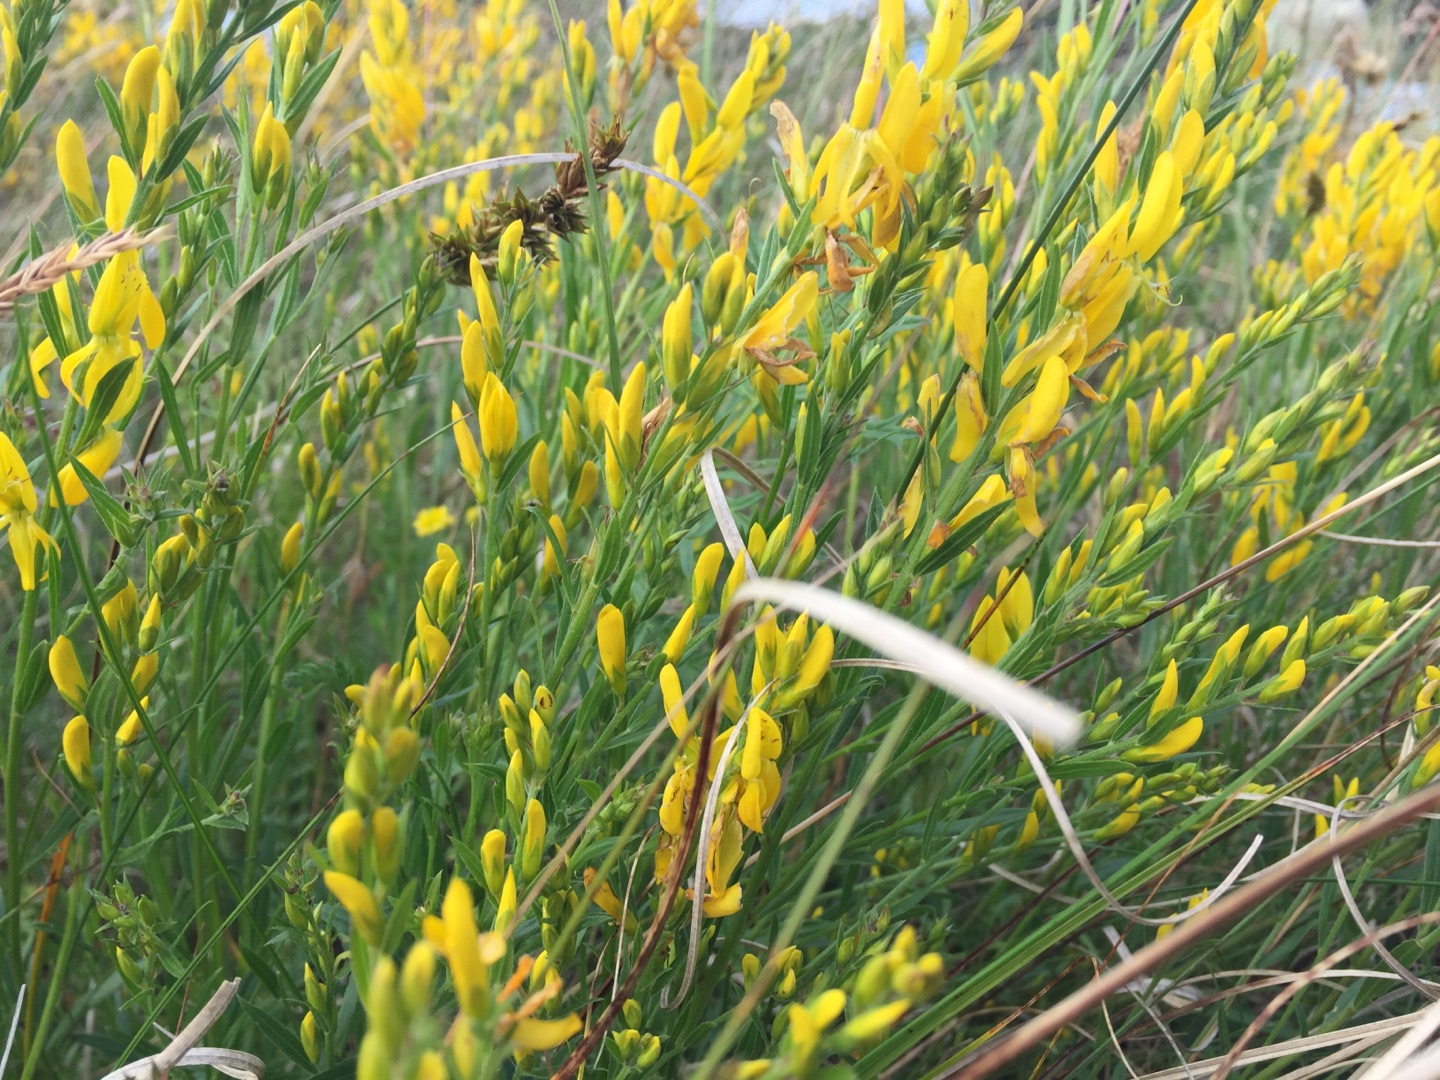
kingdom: Plantae
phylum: Tracheophyta
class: Magnoliopsida
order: Fabales
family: Fabaceae
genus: Genista
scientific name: Genista tinctoria
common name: Farve-visse
